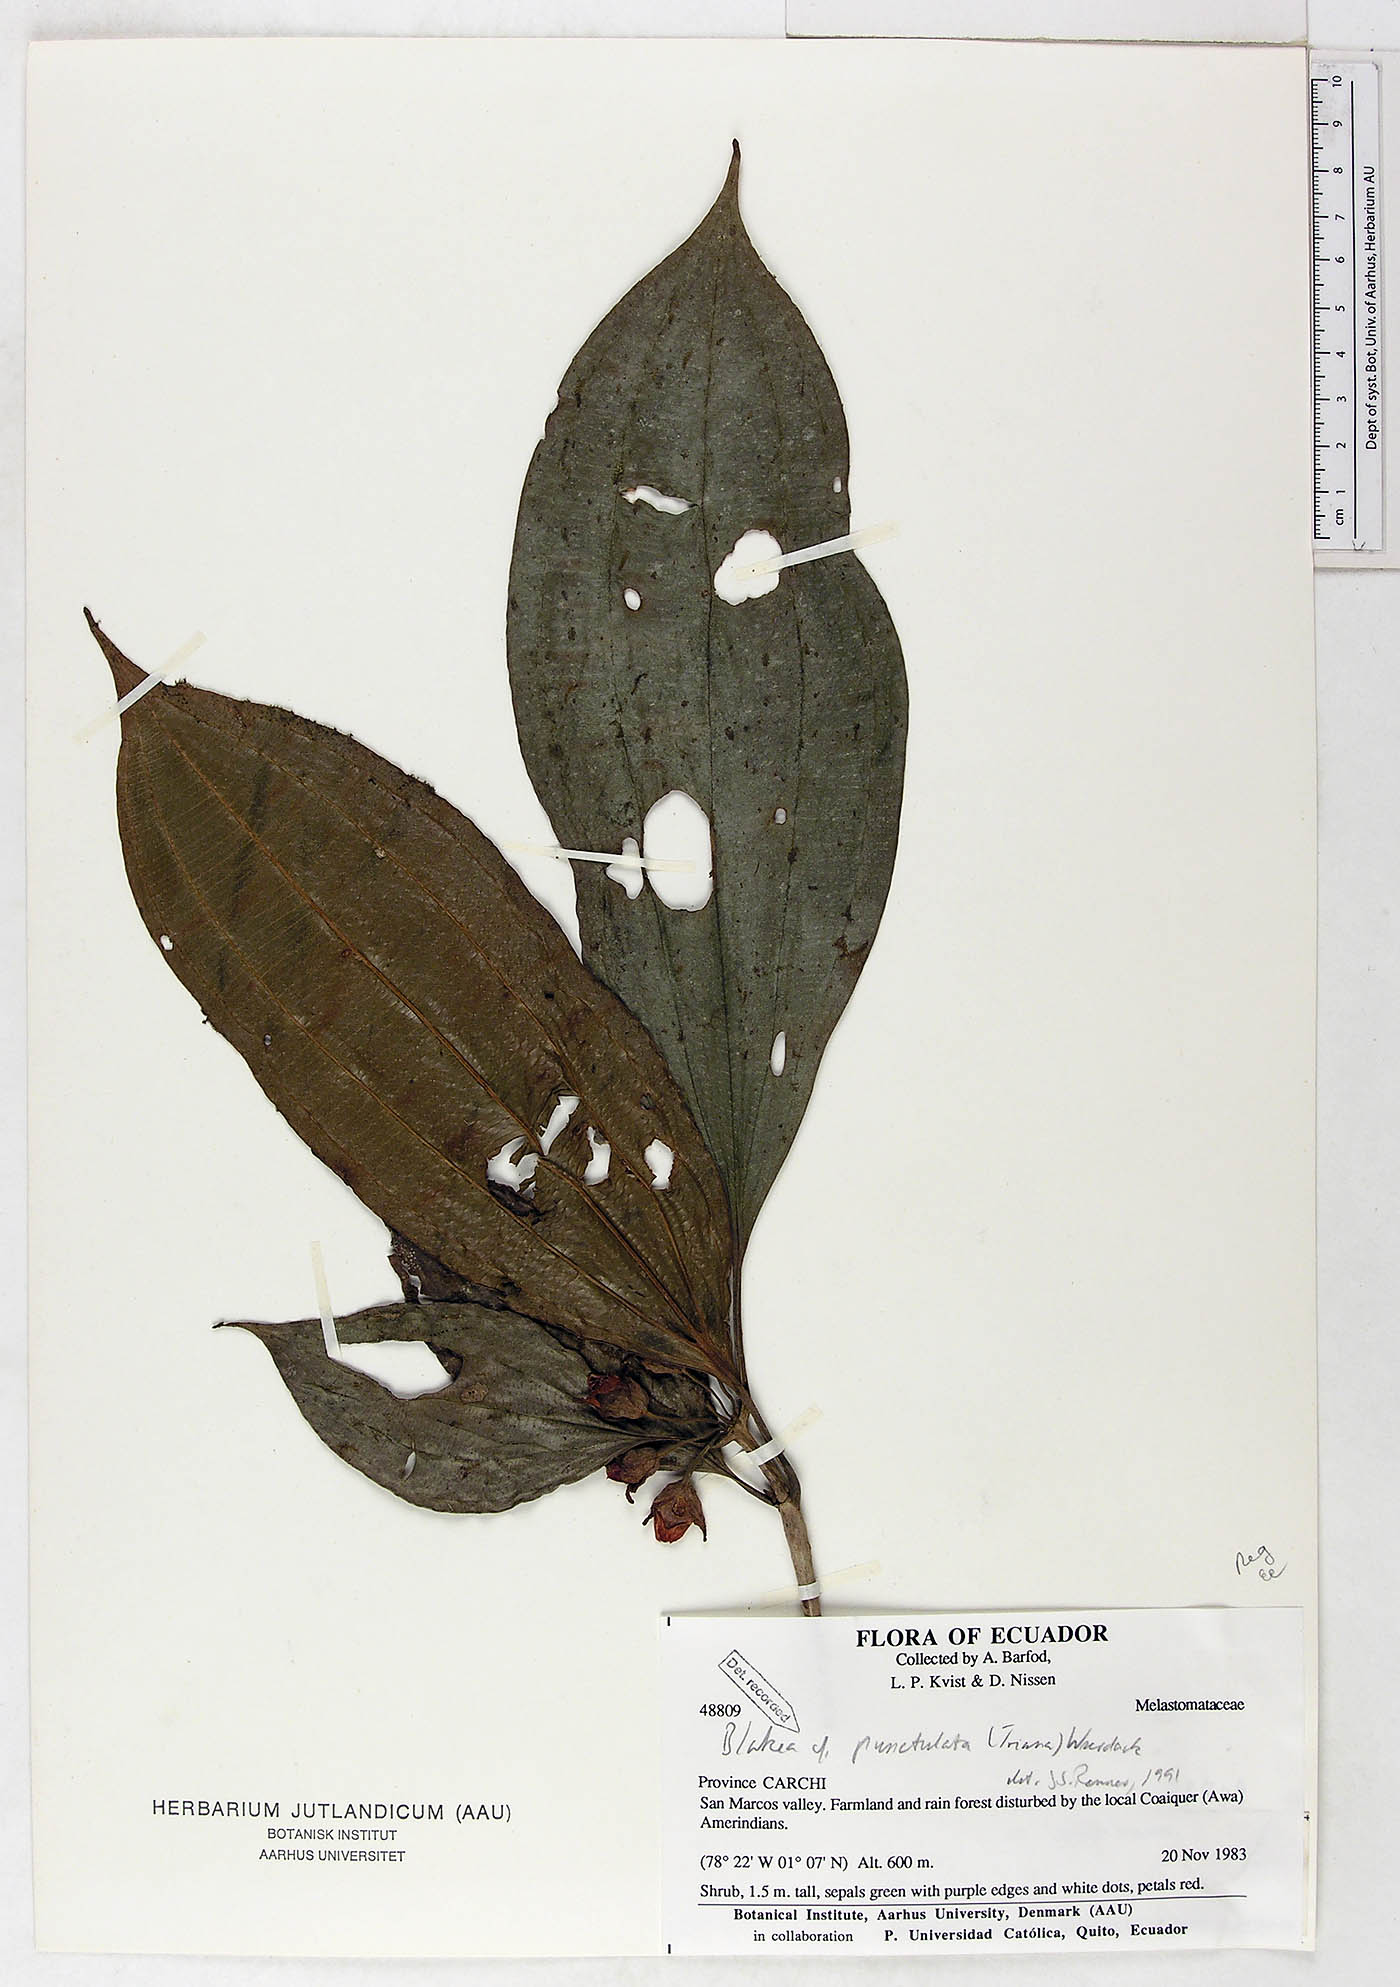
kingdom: Plantae
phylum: Tracheophyta
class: Magnoliopsida
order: Myrtales
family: Melastomataceae
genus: Blakea
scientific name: Blakea punctulata
